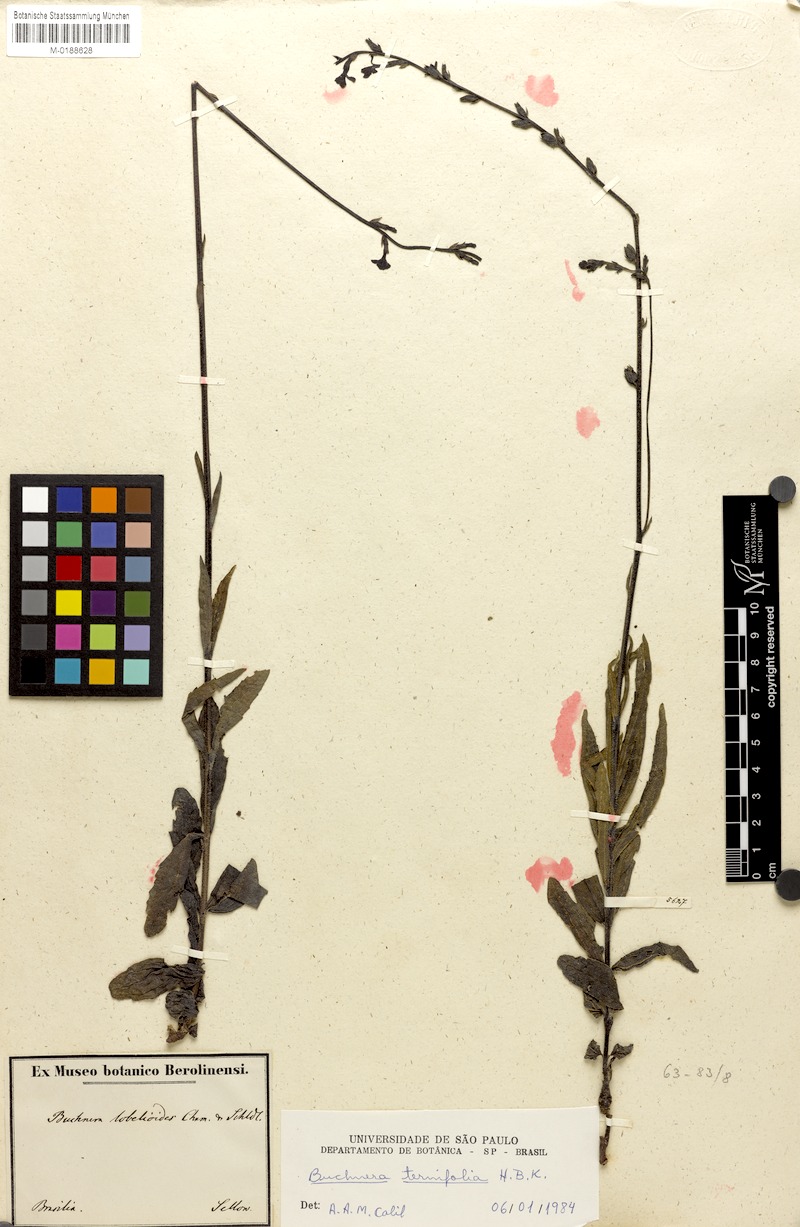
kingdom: Plantae
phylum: Tracheophyta
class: Magnoliopsida
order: Lamiales
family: Orobanchaceae
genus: Buchnera
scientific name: Buchnera ternifolia
